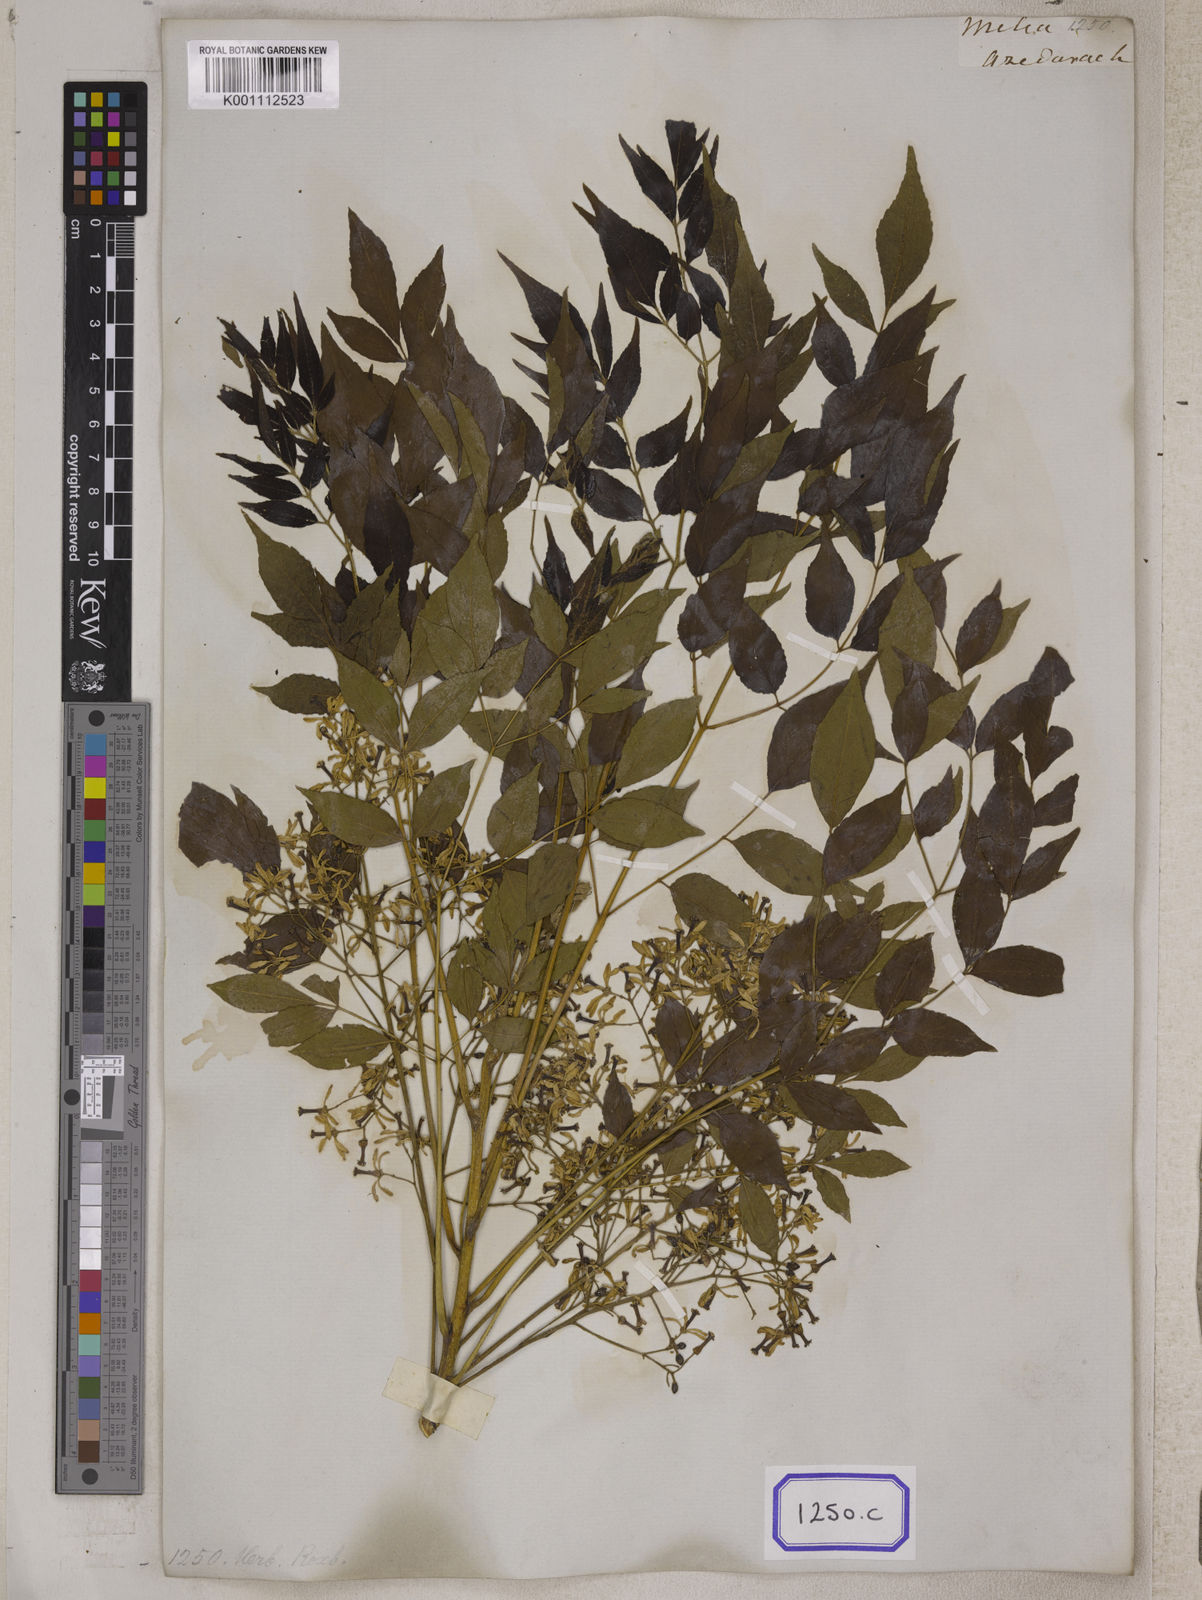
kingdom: Plantae
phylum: Tracheophyta
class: Magnoliopsida
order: Sapindales
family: Meliaceae
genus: Melia
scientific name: Melia azedarach
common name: Chinaberrytree
